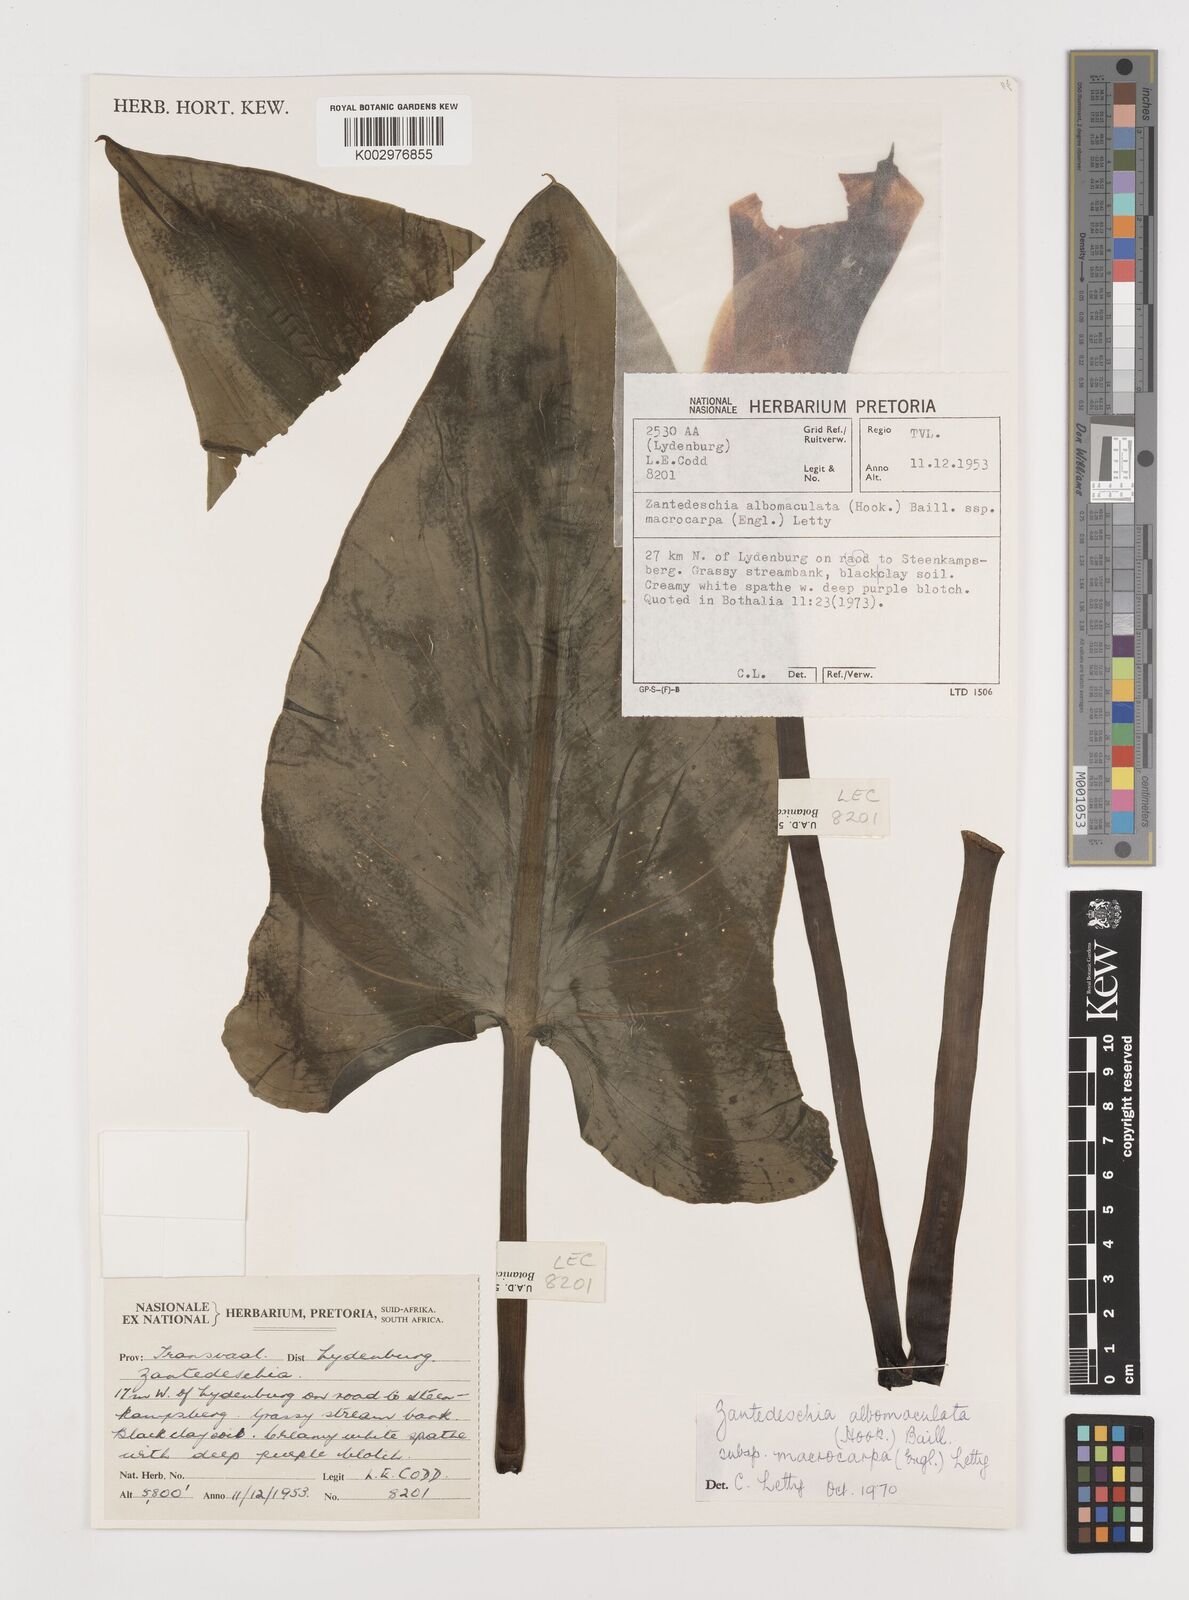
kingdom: Plantae
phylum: Tracheophyta
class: Liliopsida
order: Alismatales
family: Araceae
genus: Zantedeschia
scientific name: Zantedeschia albomaculata
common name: Spotted calla lily
